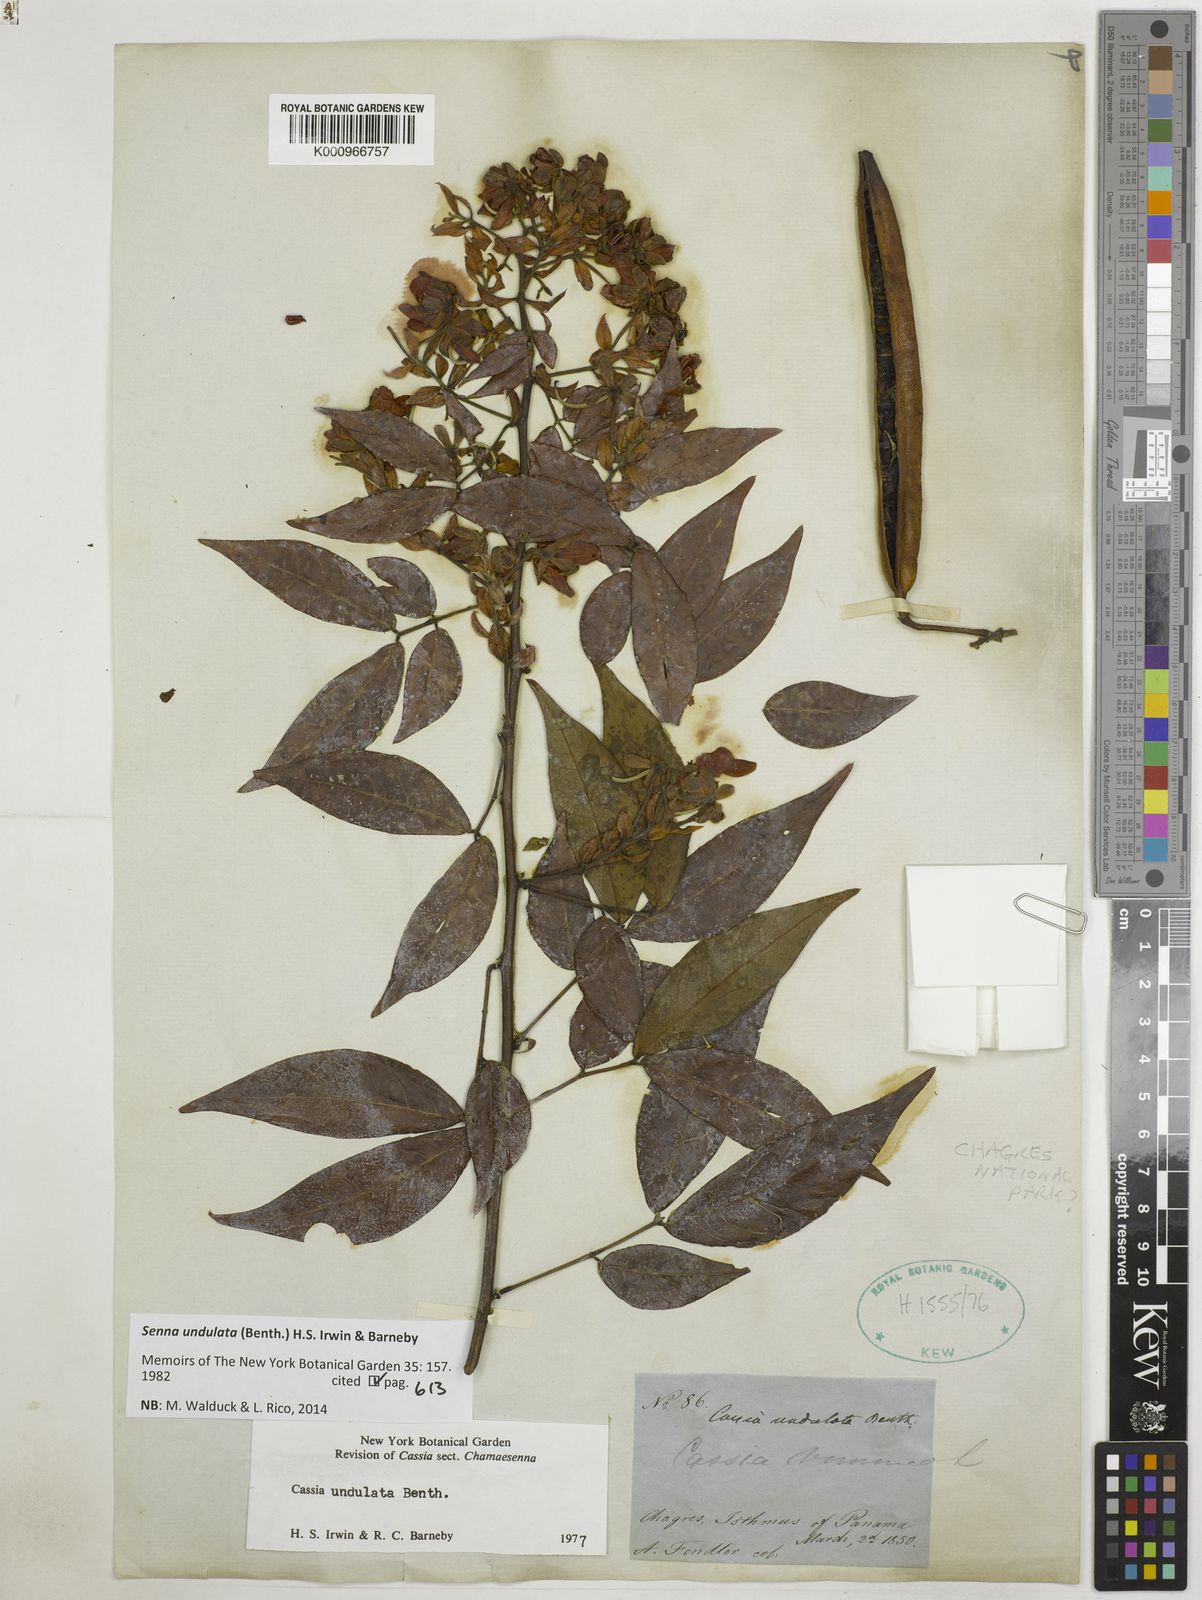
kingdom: Plantae
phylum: Tracheophyta
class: Magnoliopsida
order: Fabales
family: Fabaceae
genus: Senna
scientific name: Senna undulata
